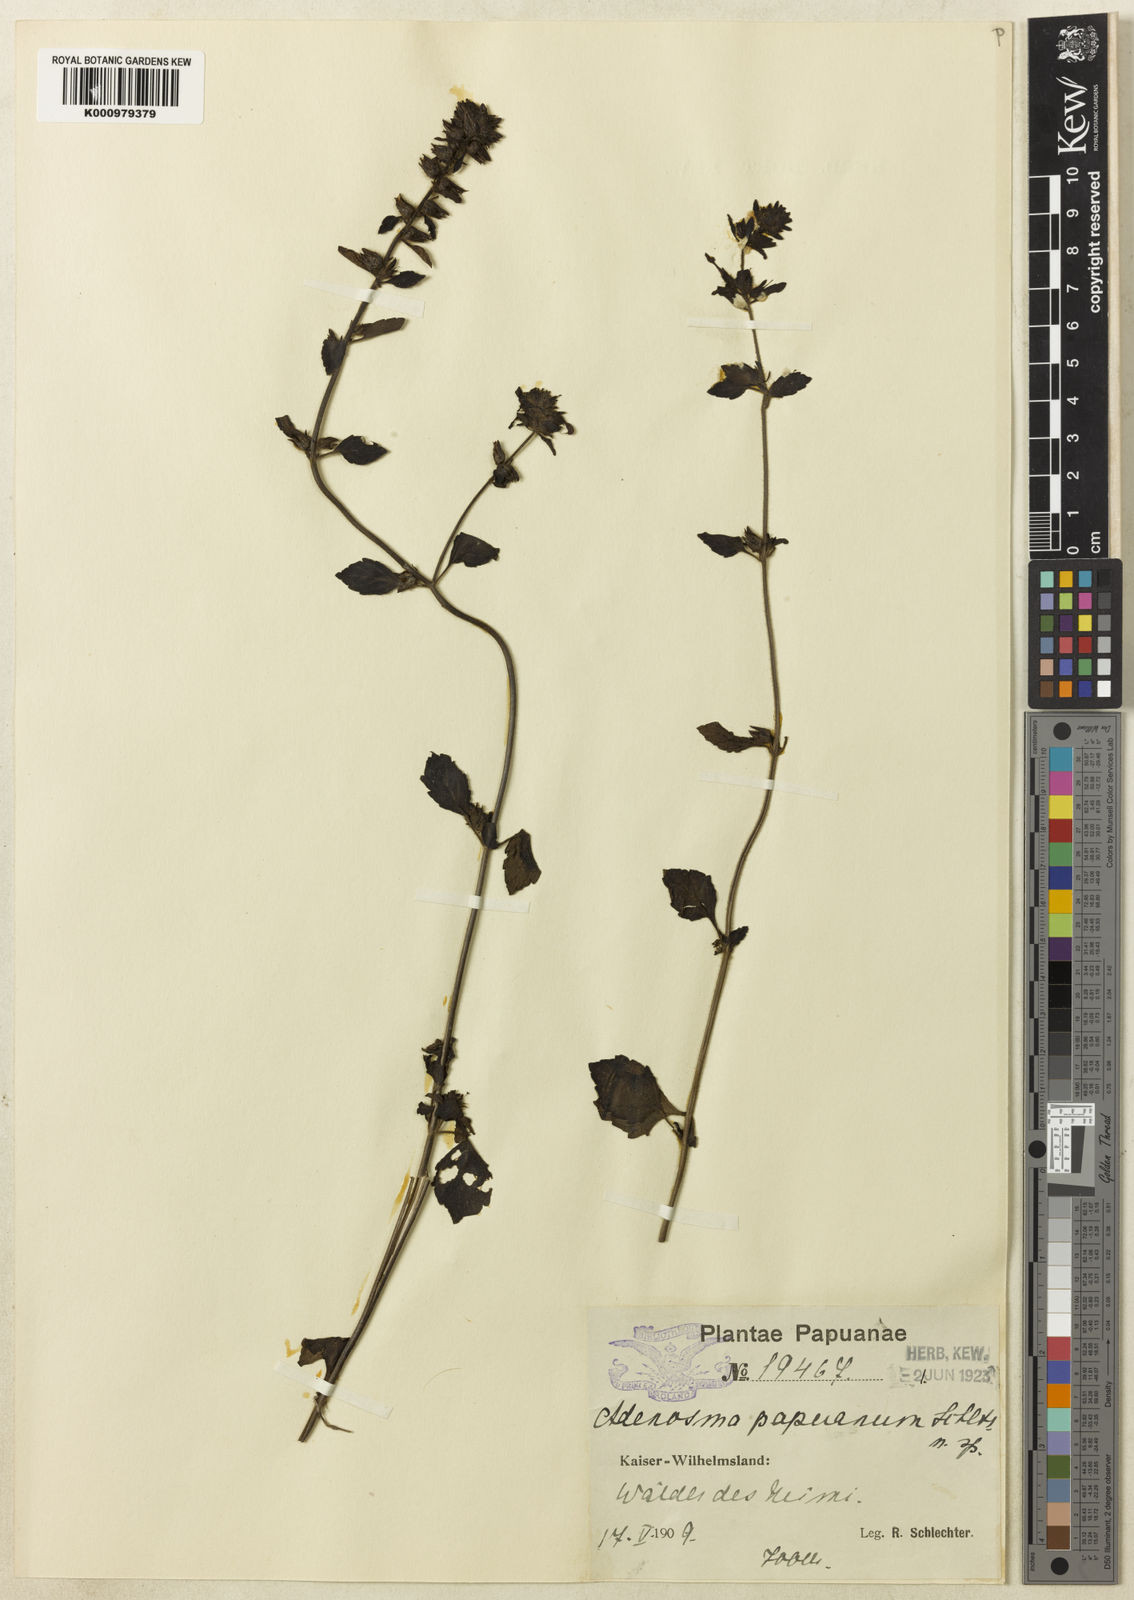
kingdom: Plantae
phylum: Tracheophyta
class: Magnoliopsida
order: Lamiales
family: Plantaginaceae
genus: Adenosma
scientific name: Adenosma papuana
